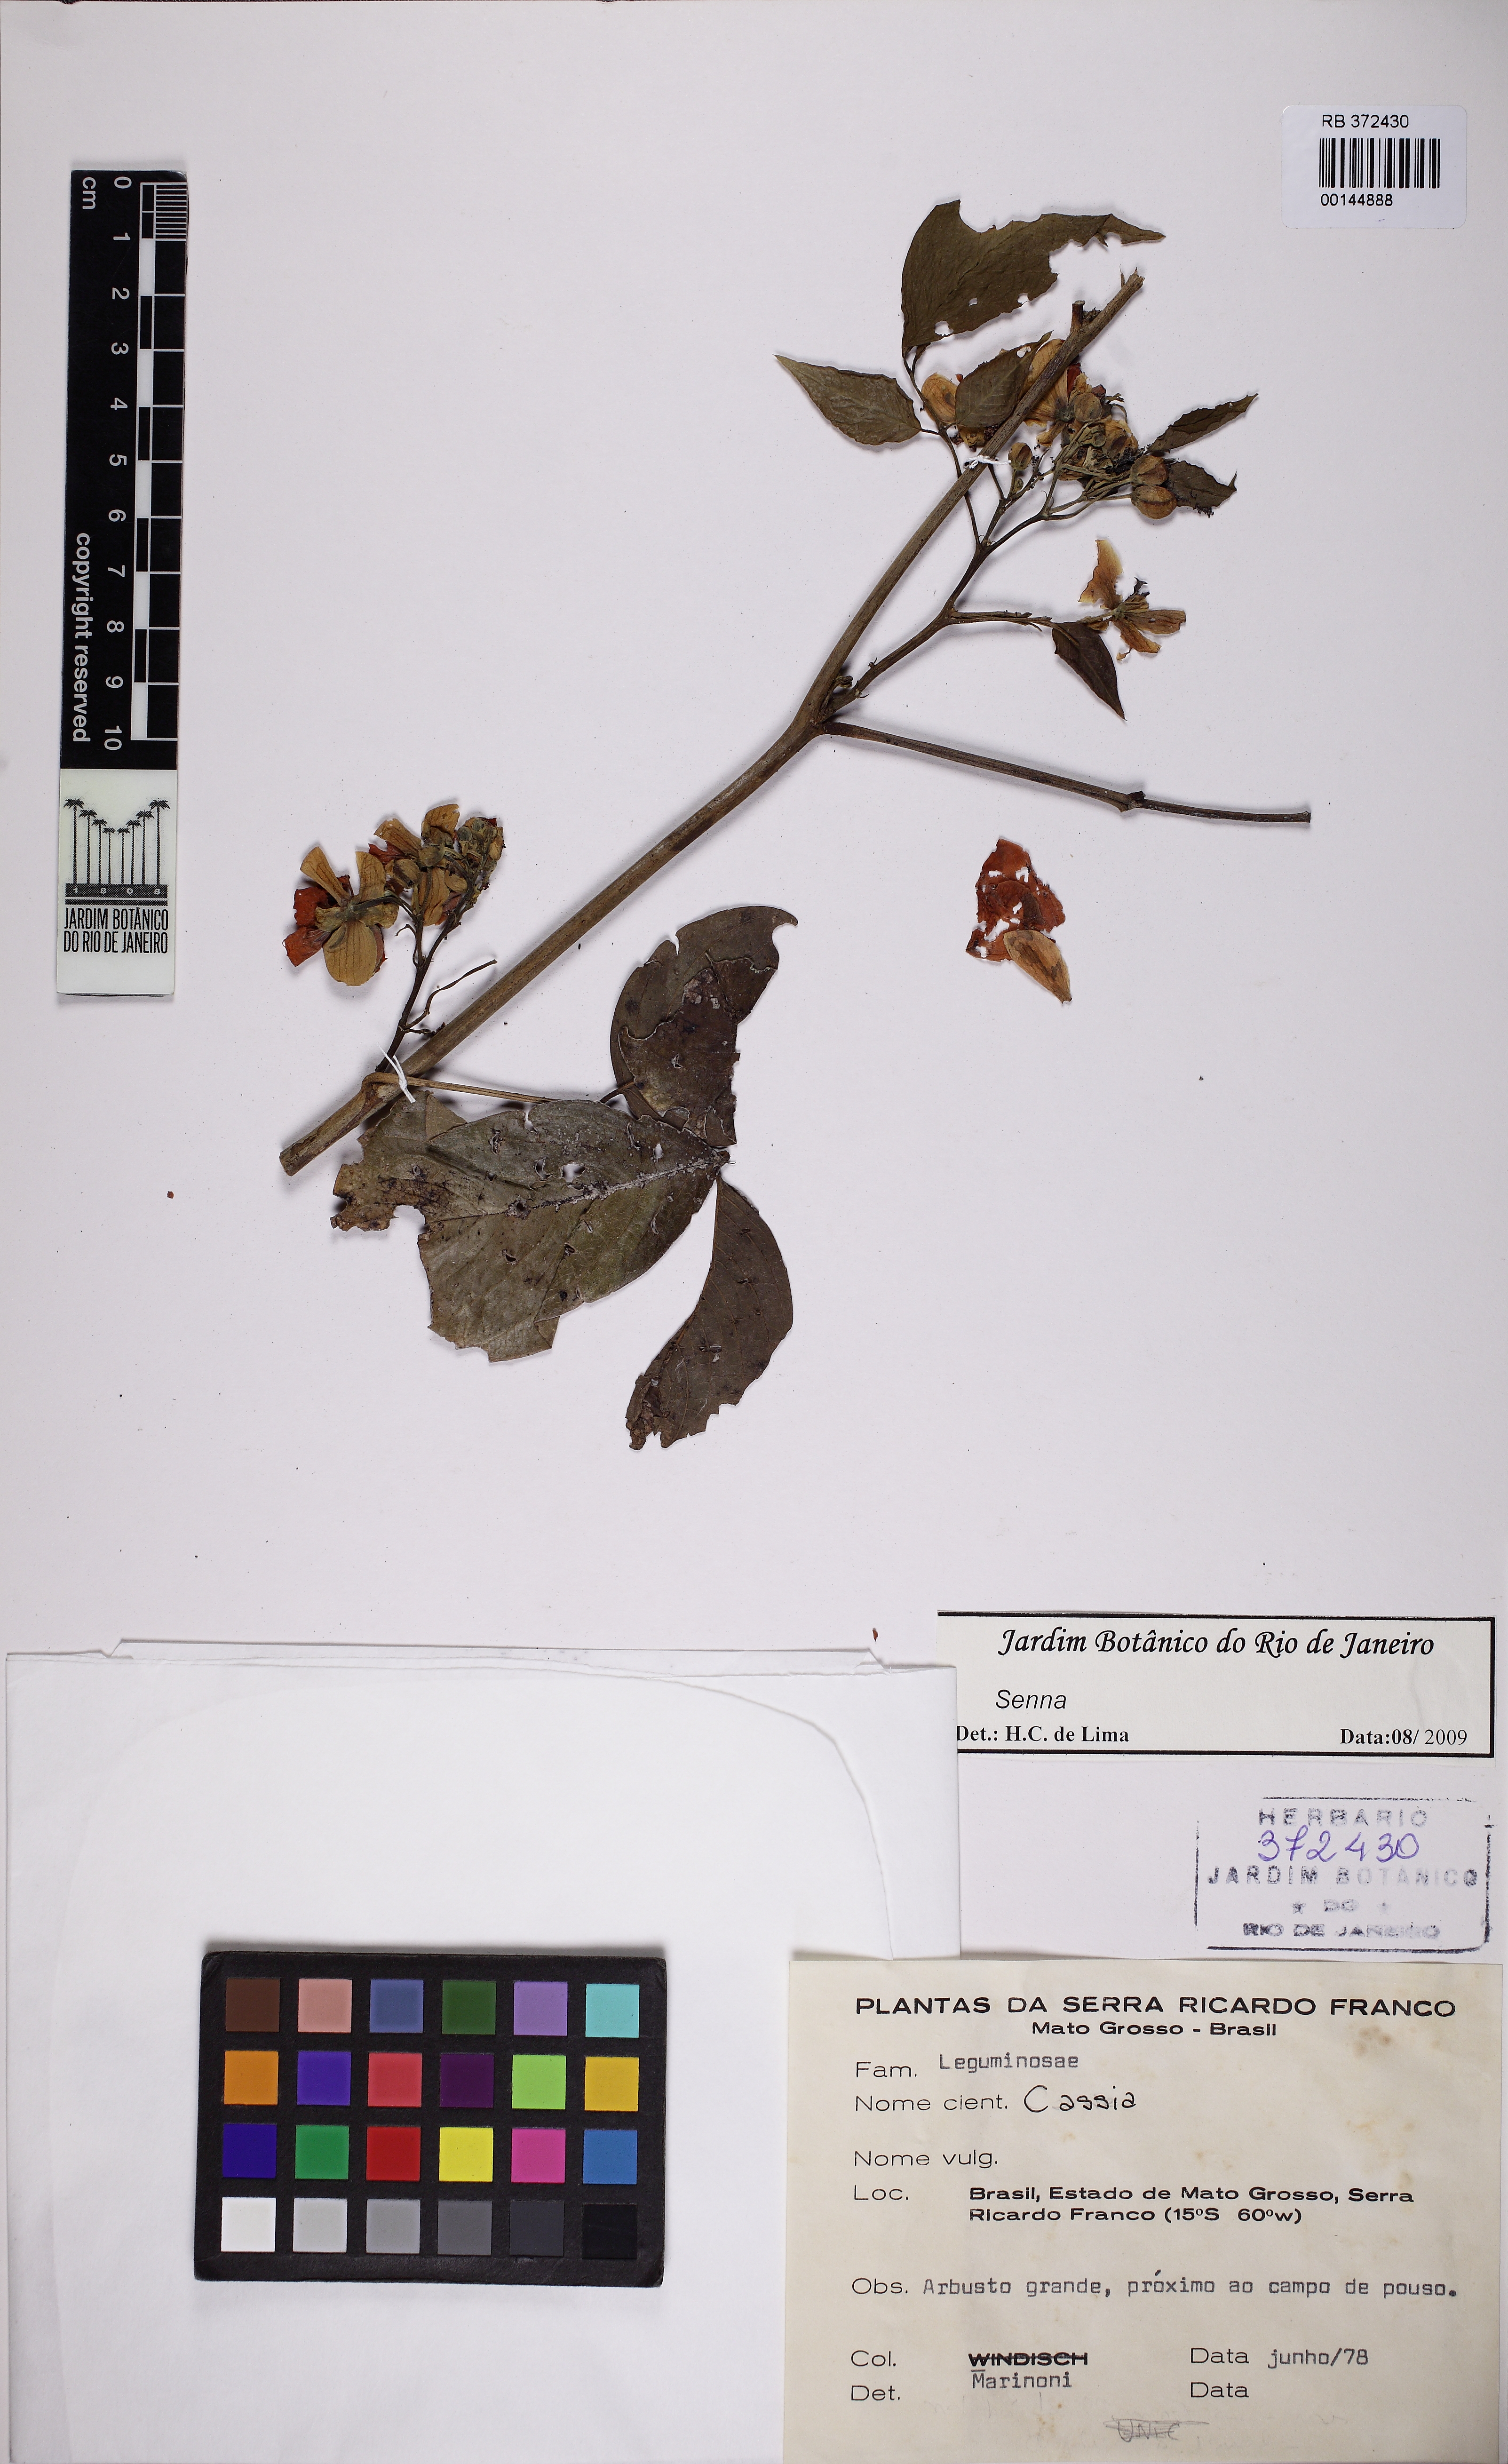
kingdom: Plantae
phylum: Tracheophyta
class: Magnoliopsida
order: Fabales
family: Fabaceae
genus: Senna
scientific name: Senna georgica
